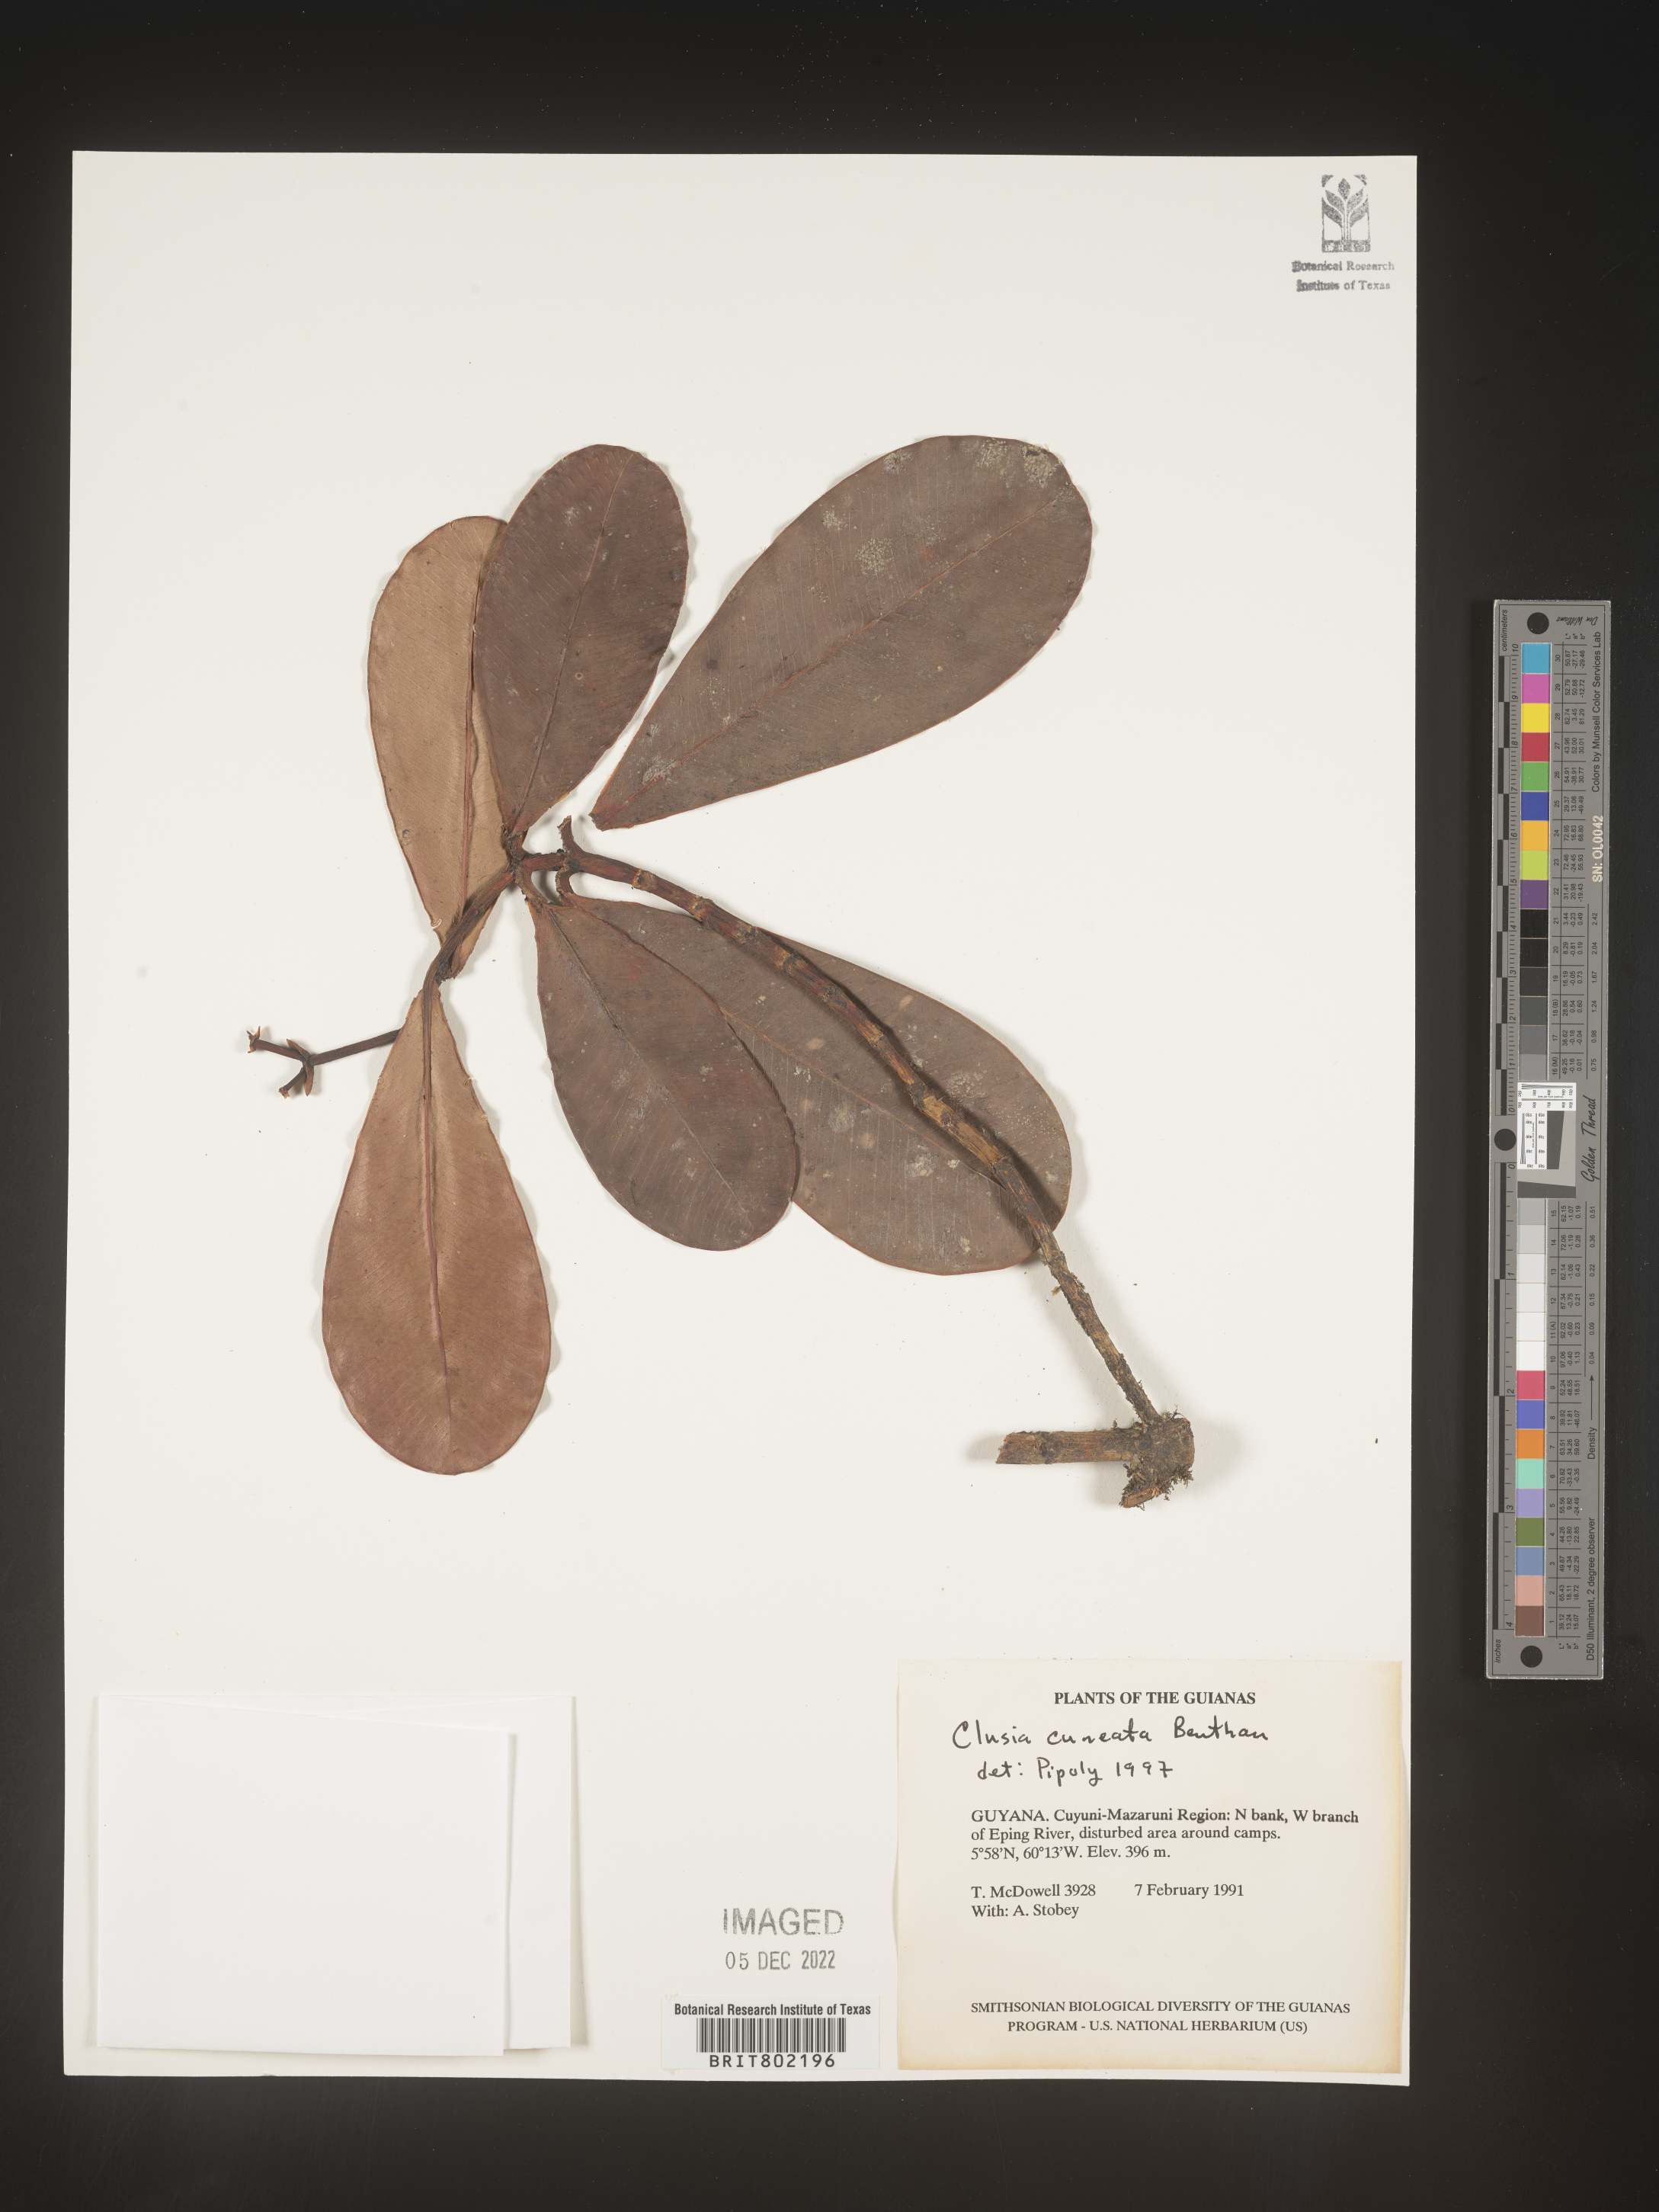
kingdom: Plantae
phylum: Tracheophyta
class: Magnoliopsida
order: Malpighiales
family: Clusiaceae
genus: Clusia
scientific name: Clusia
